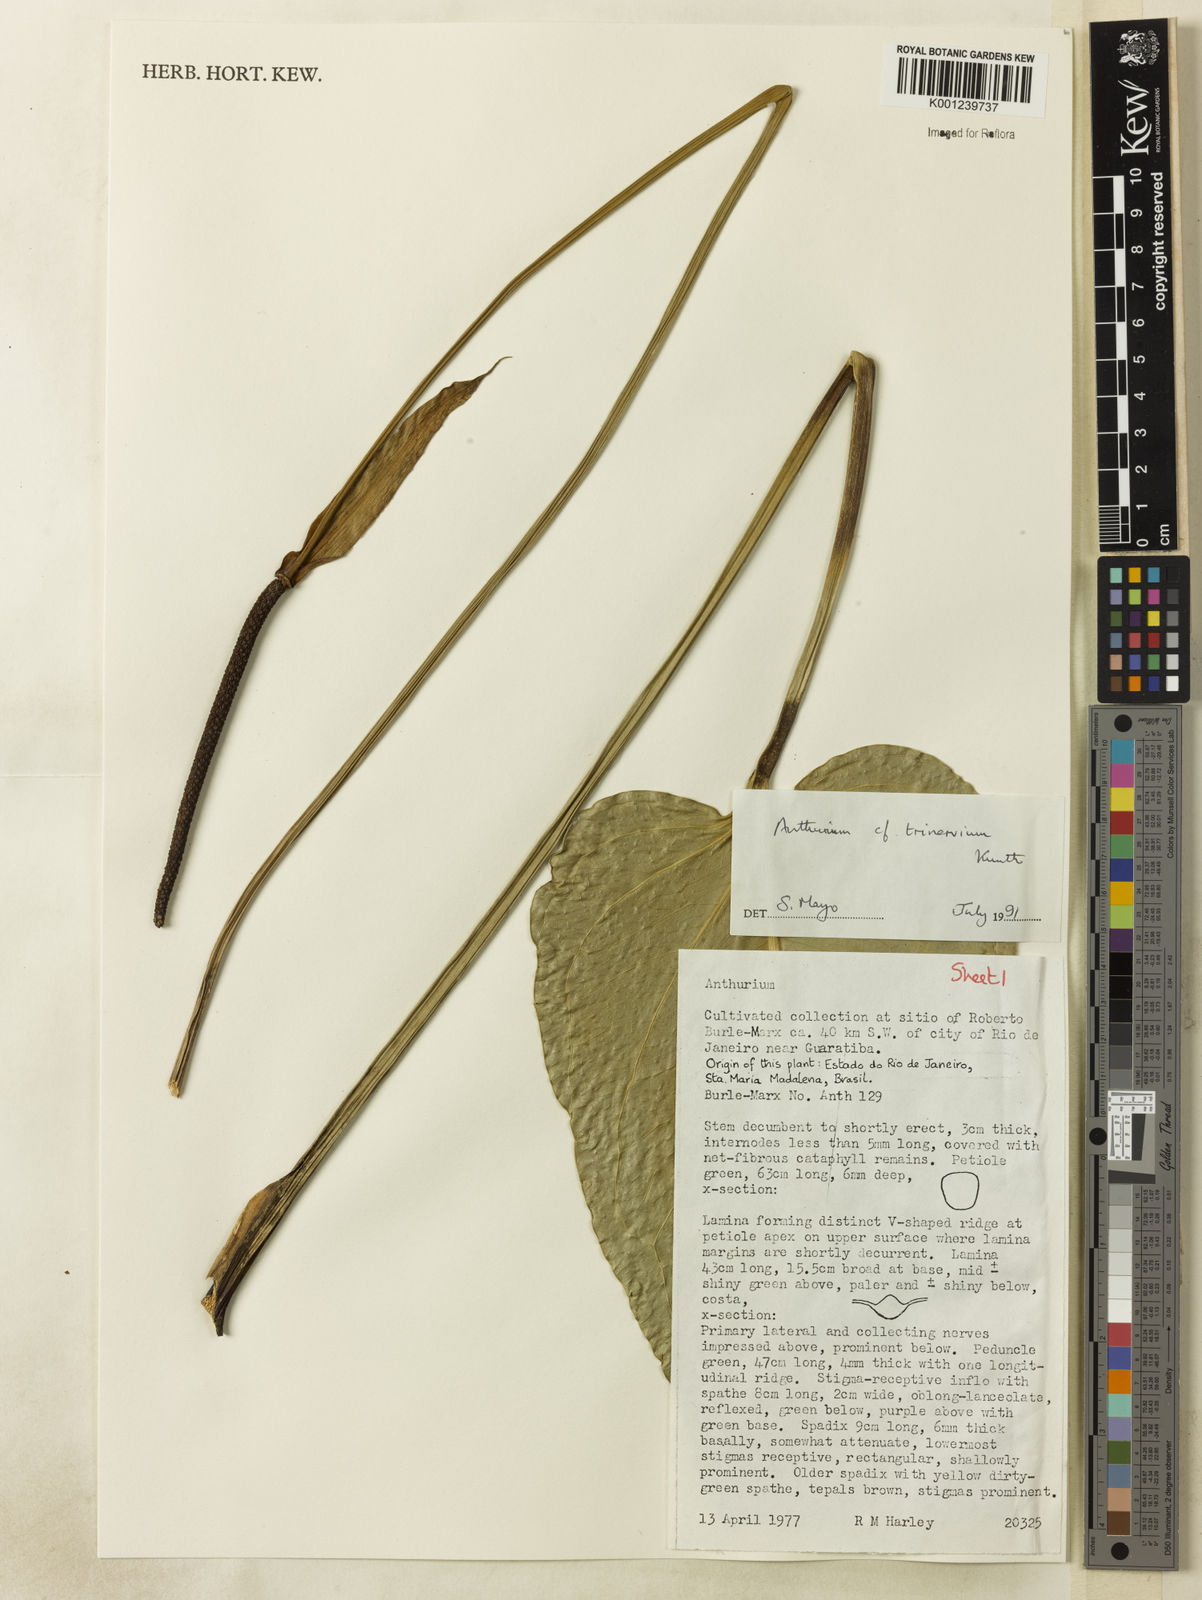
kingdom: Plantae
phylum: Tracheophyta
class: Liliopsida
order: Alismatales
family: Araceae
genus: Anthurium
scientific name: Anthurium trinervium
